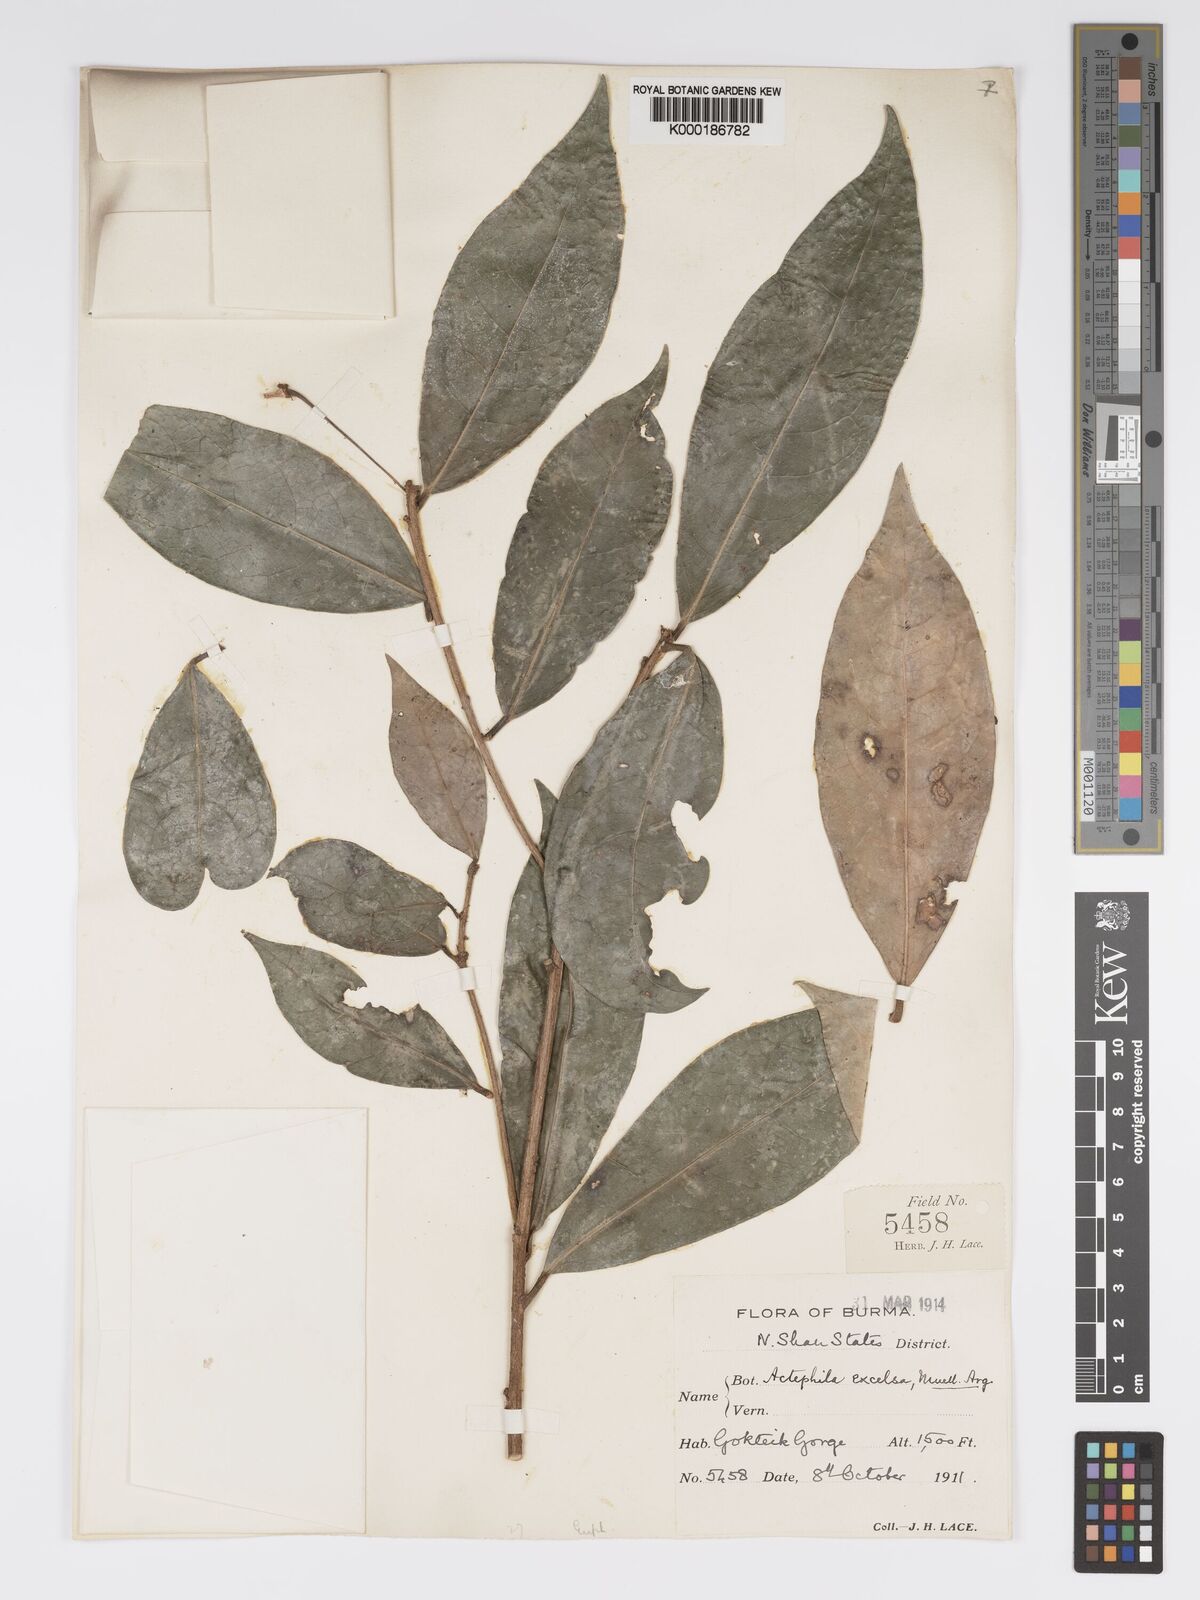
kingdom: Plantae
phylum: Tracheophyta
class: Magnoliopsida
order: Malpighiales
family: Phyllanthaceae
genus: Actephila
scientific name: Actephila excelsa
